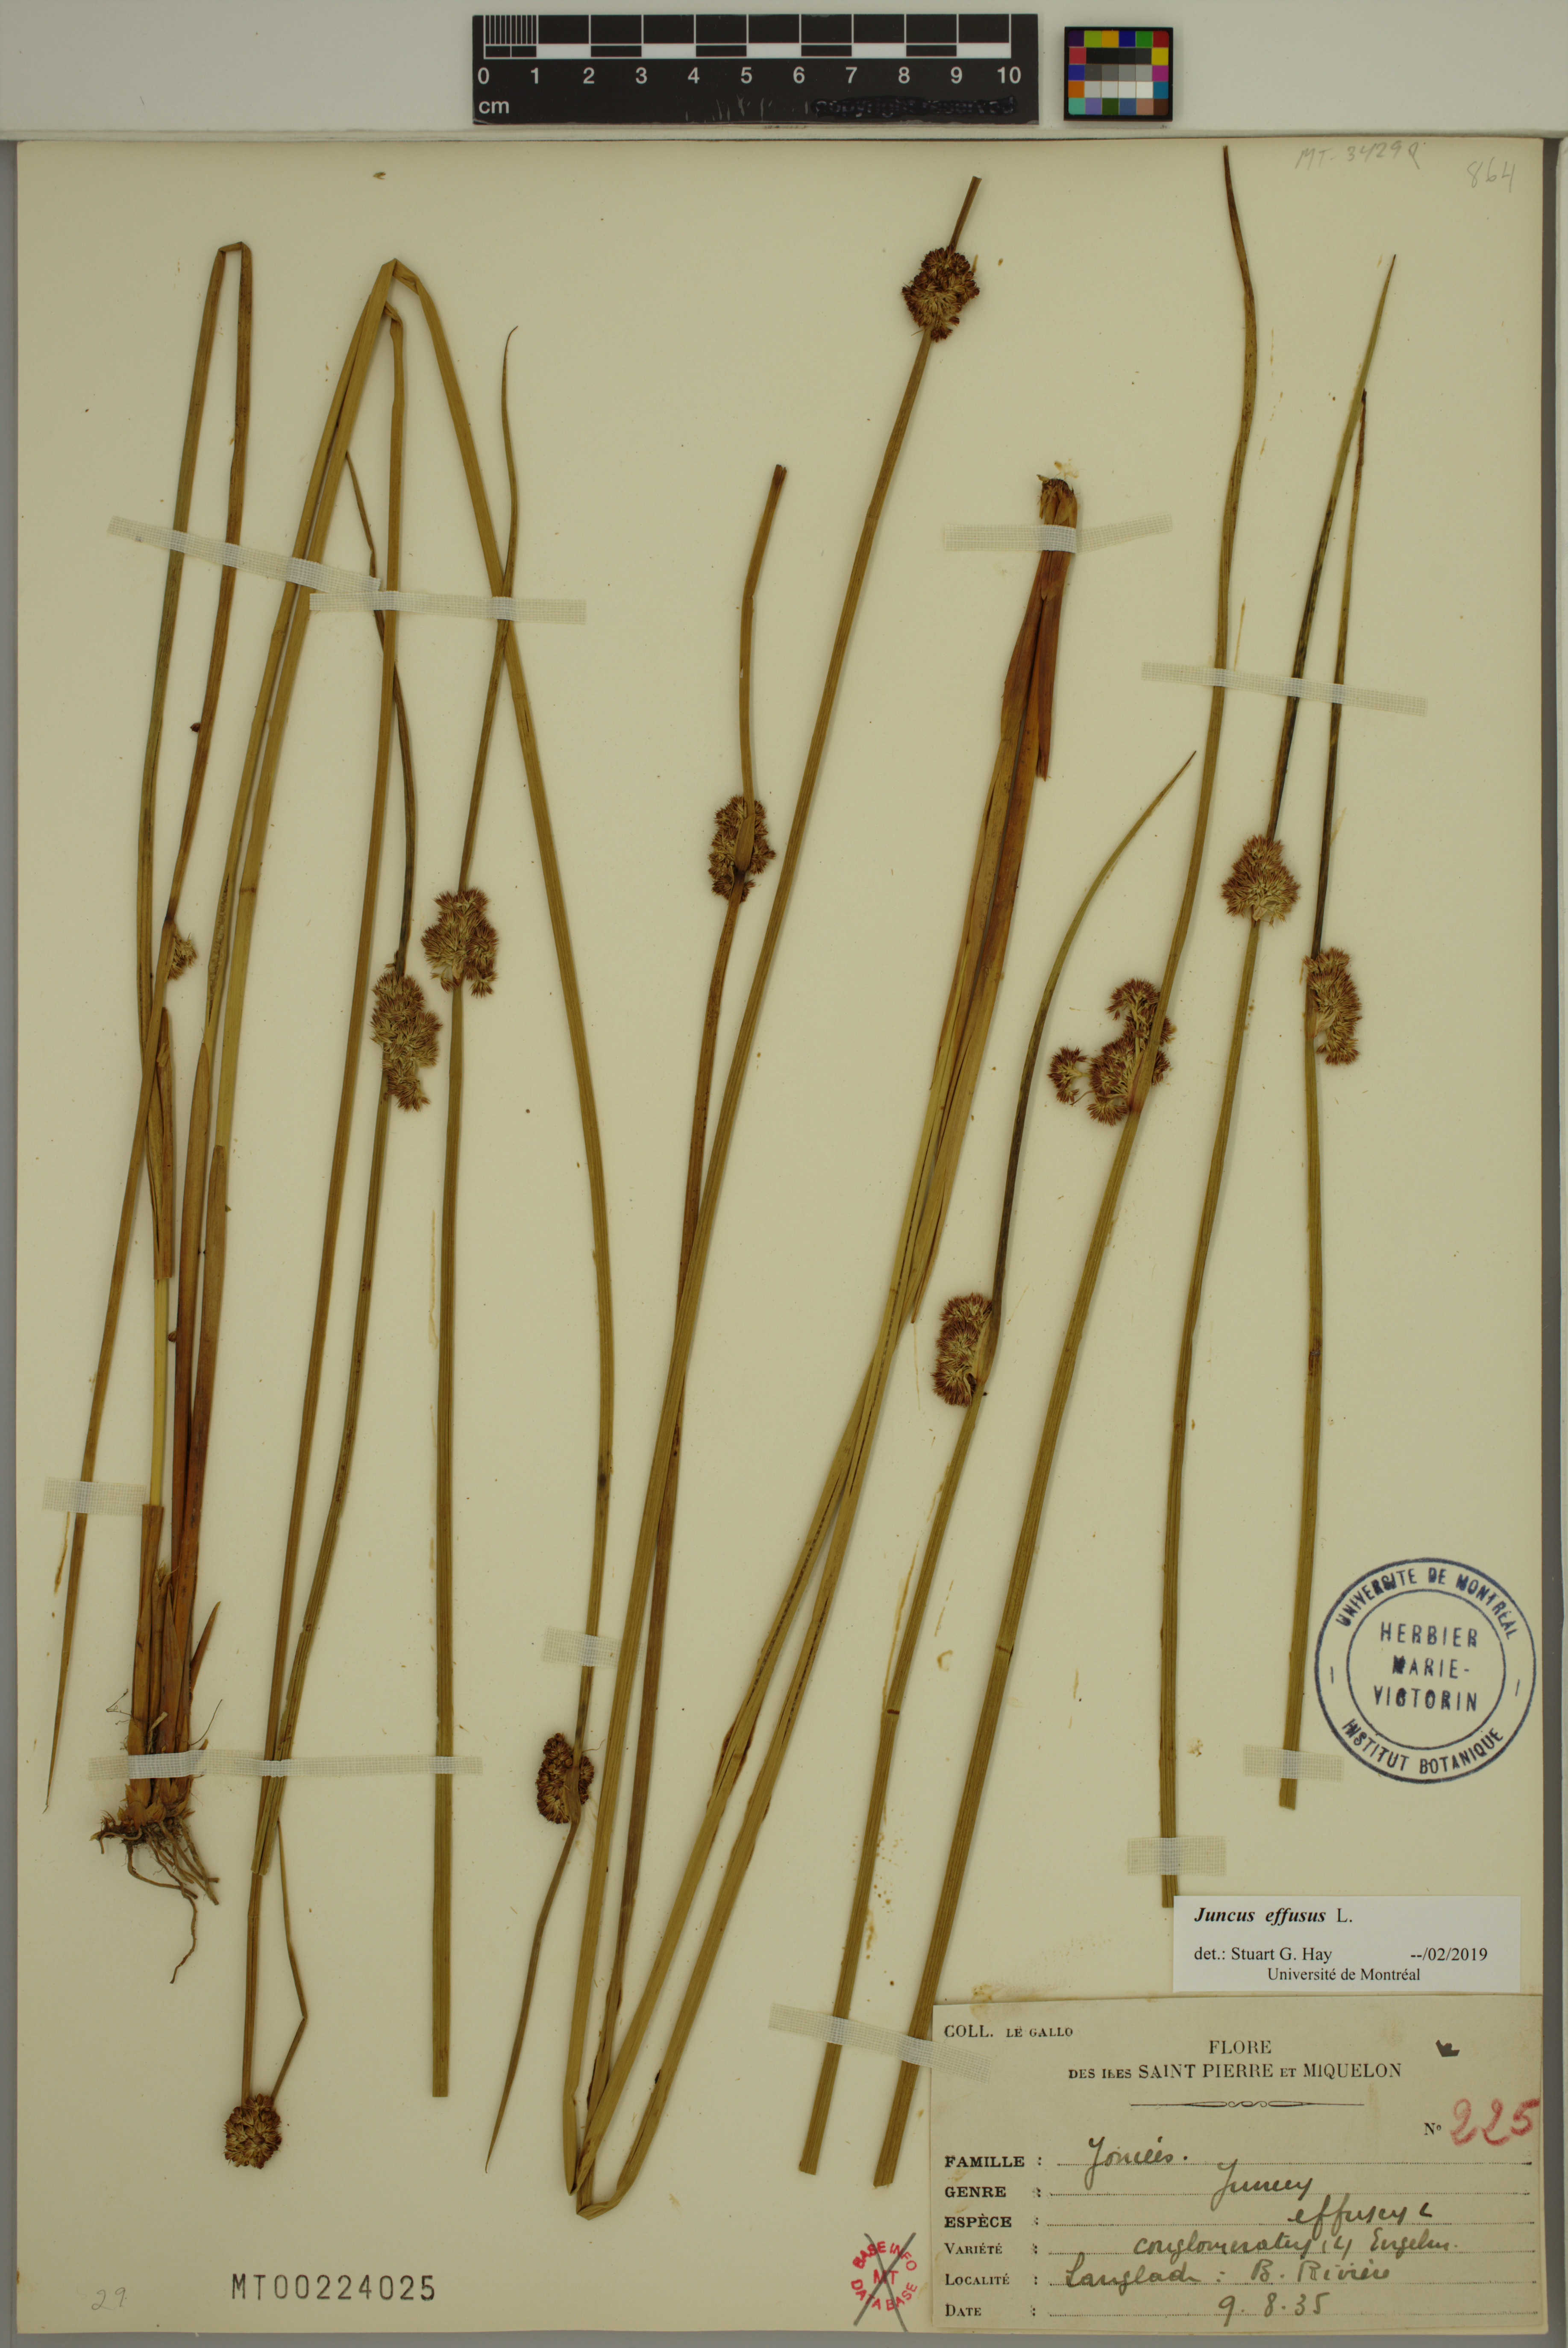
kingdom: Plantae
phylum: Tracheophyta
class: Liliopsida
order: Poales
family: Juncaceae
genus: Juncus
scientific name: Juncus effusus
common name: Soft rush
